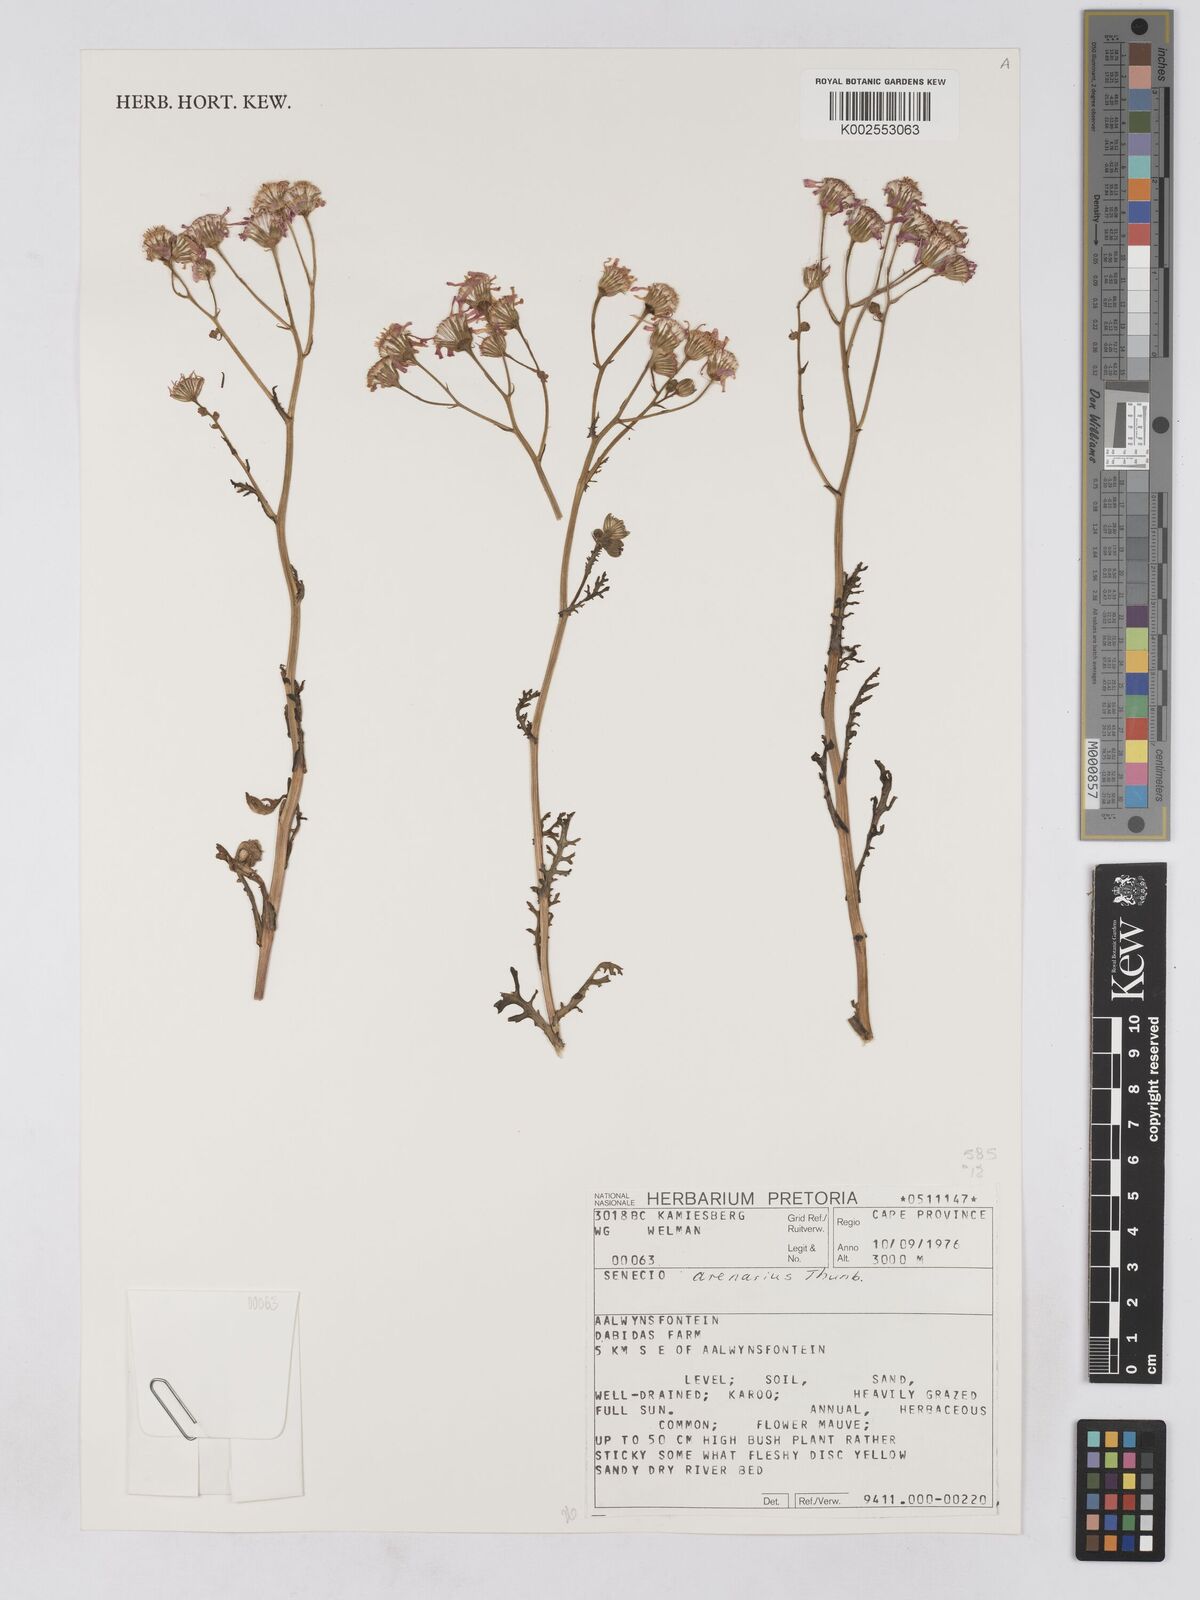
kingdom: Plantae
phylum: Tracheophyta
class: Magnoliopsida
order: Asterales
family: Asteraceae
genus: Senecio
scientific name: Senecio arenarius
